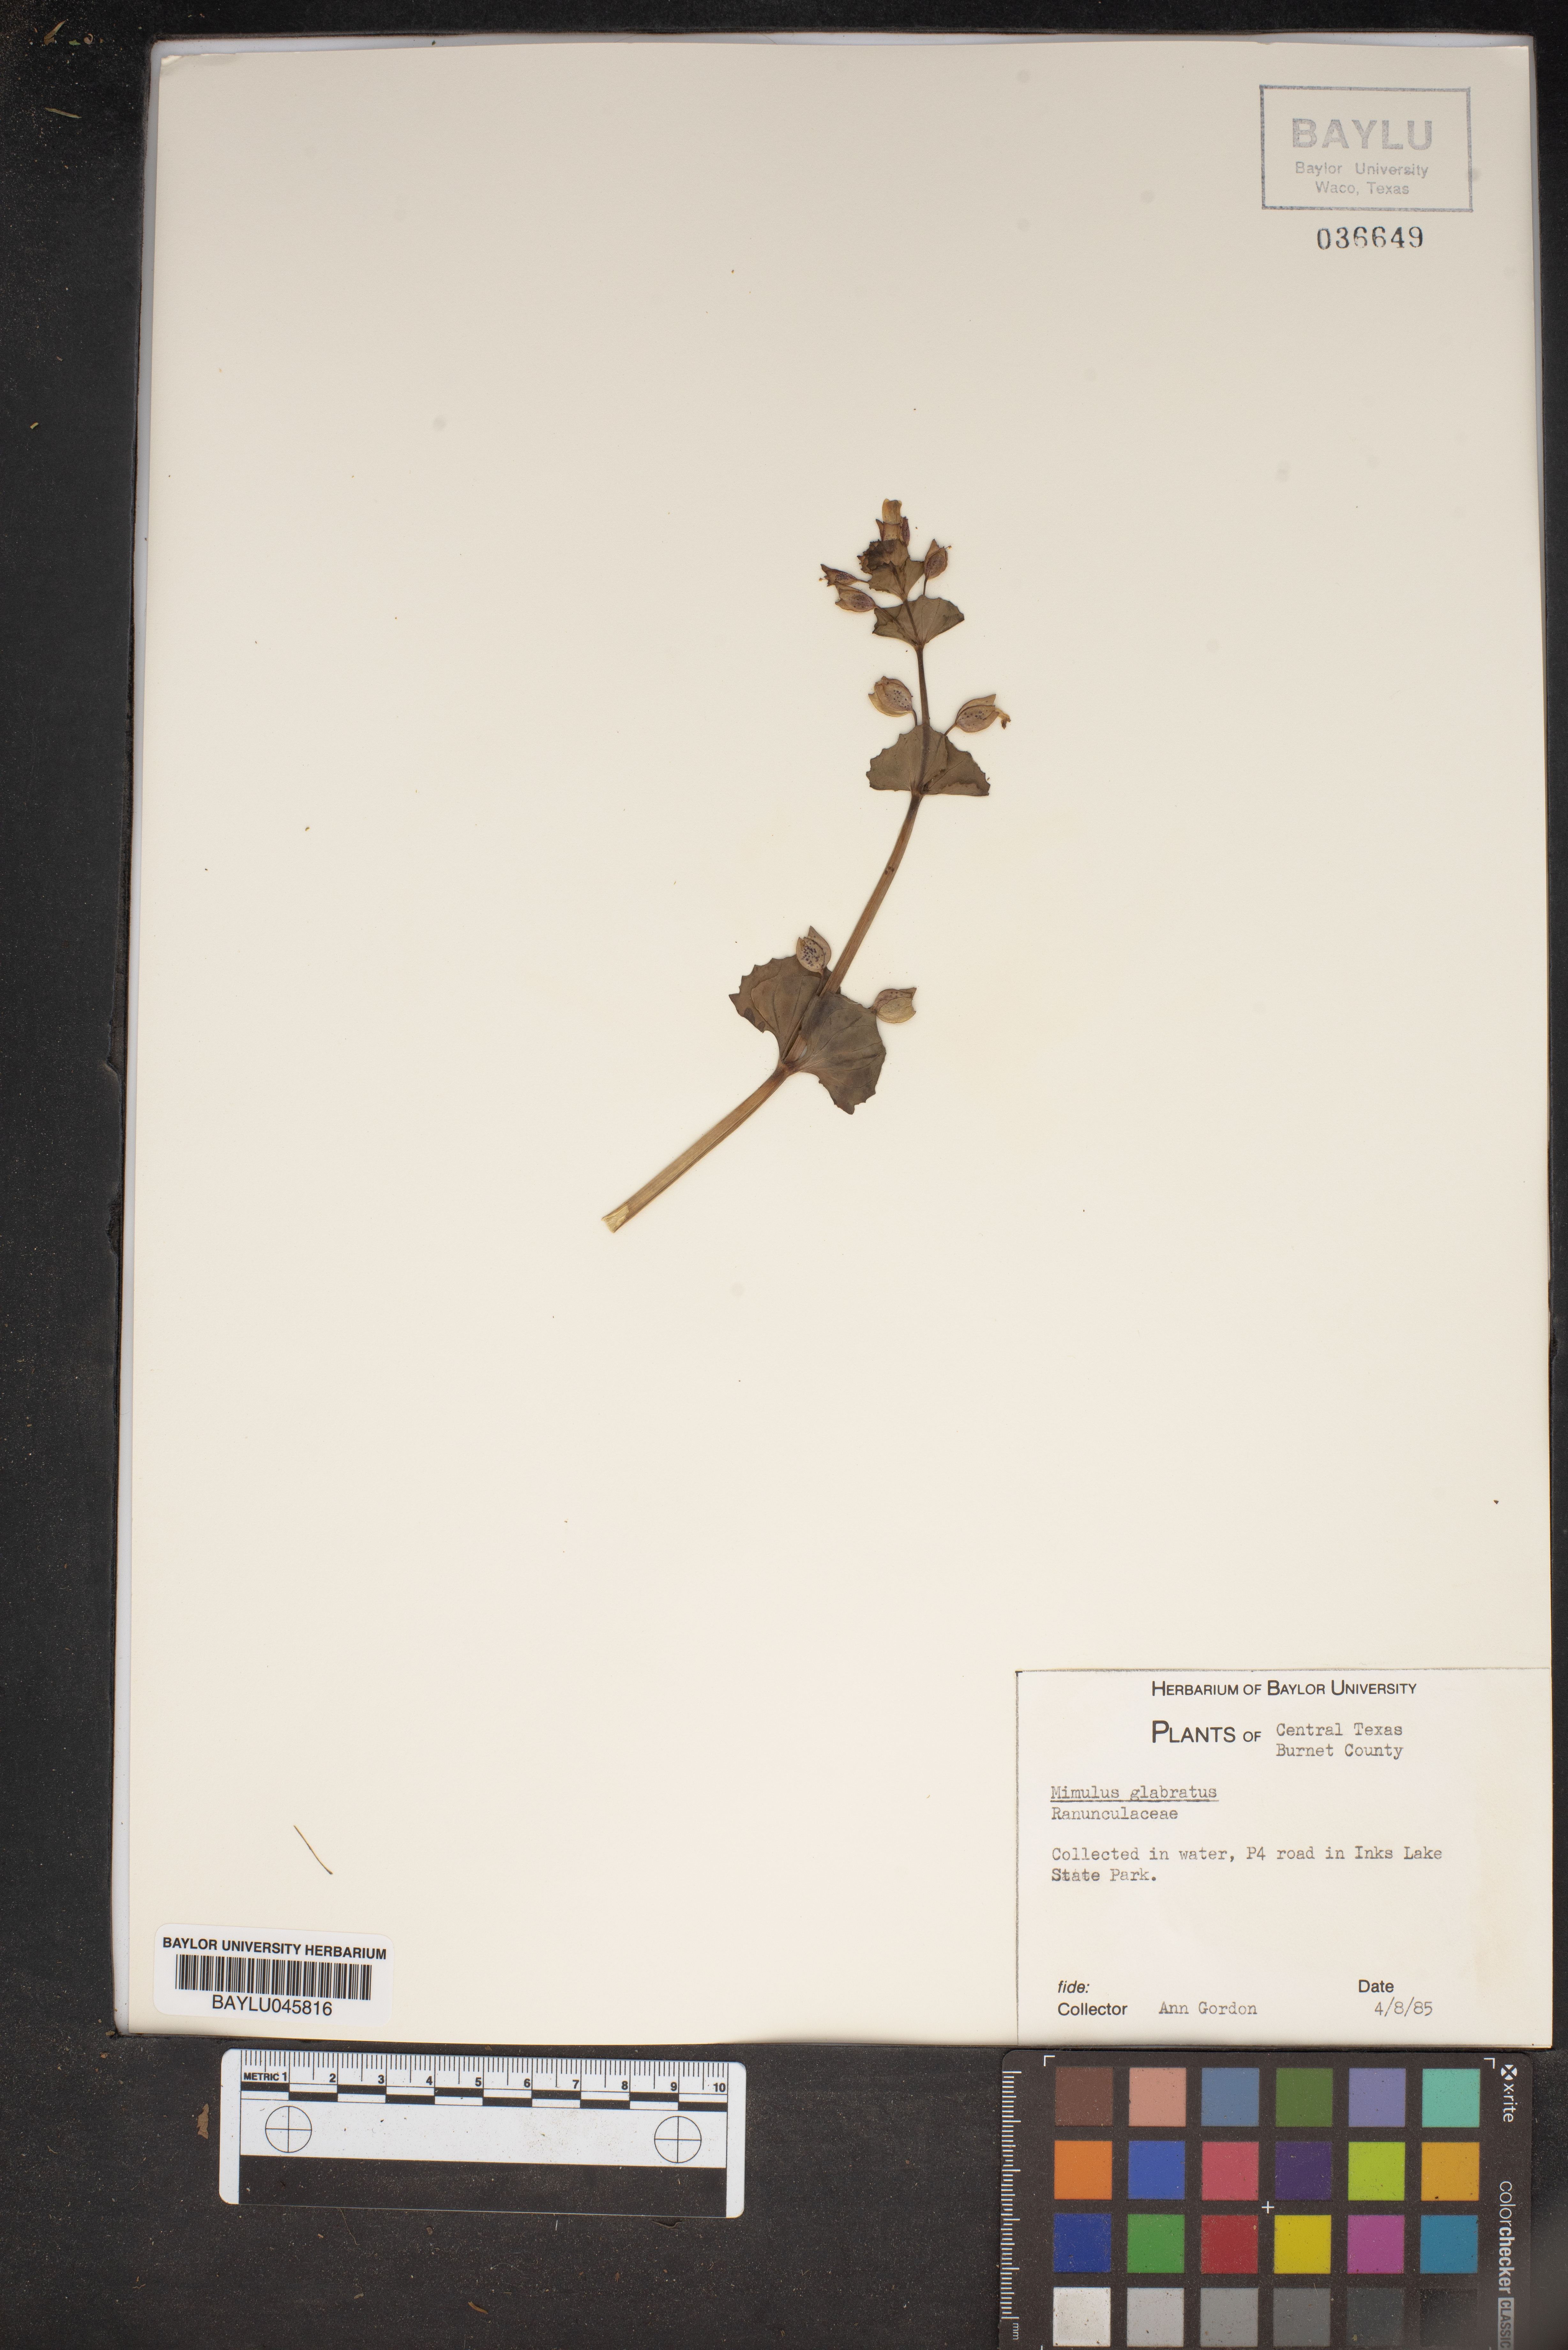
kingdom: Plantae
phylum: Tracheophyta
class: Magnoliopsida
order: Lamiales
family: Phrymaceae
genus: Erythranthe
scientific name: Erythranthe glabrata
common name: Round-leaved monkeyflower
